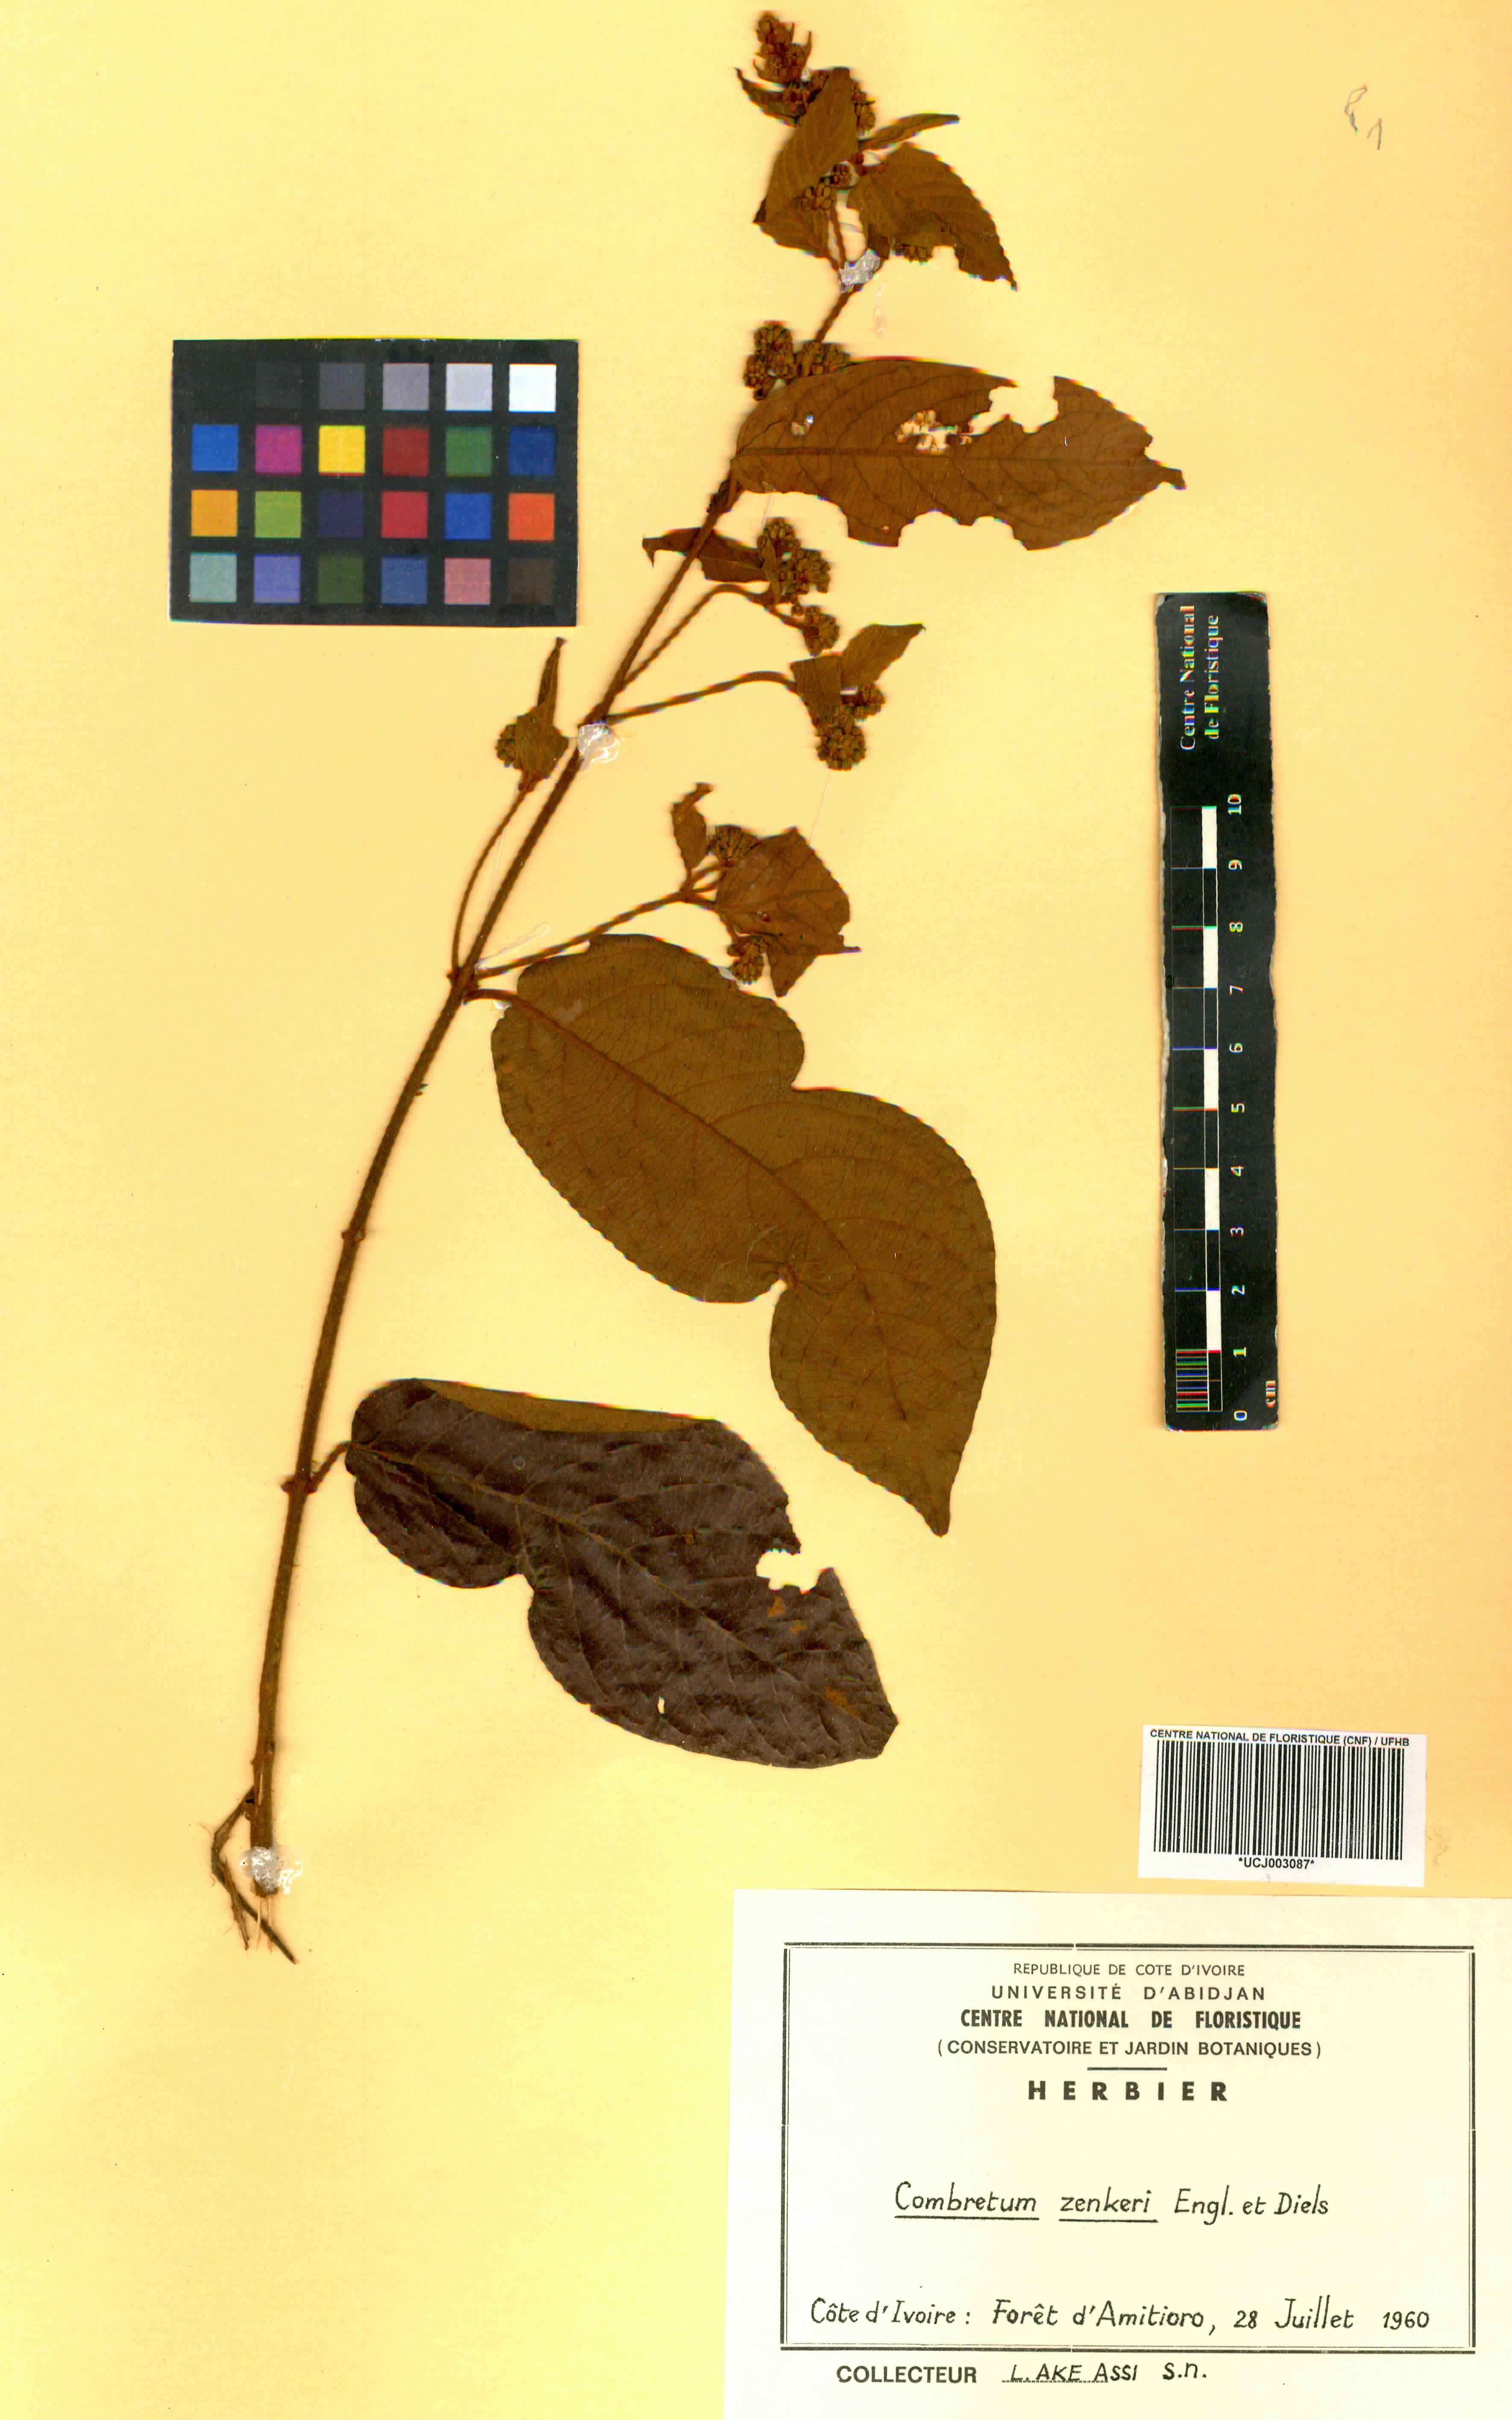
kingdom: Plantae
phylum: Tracheophyta
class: Magnoliopsida
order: Myrtales
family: Combretaceae
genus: Combretum
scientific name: Combretum zenkeri
